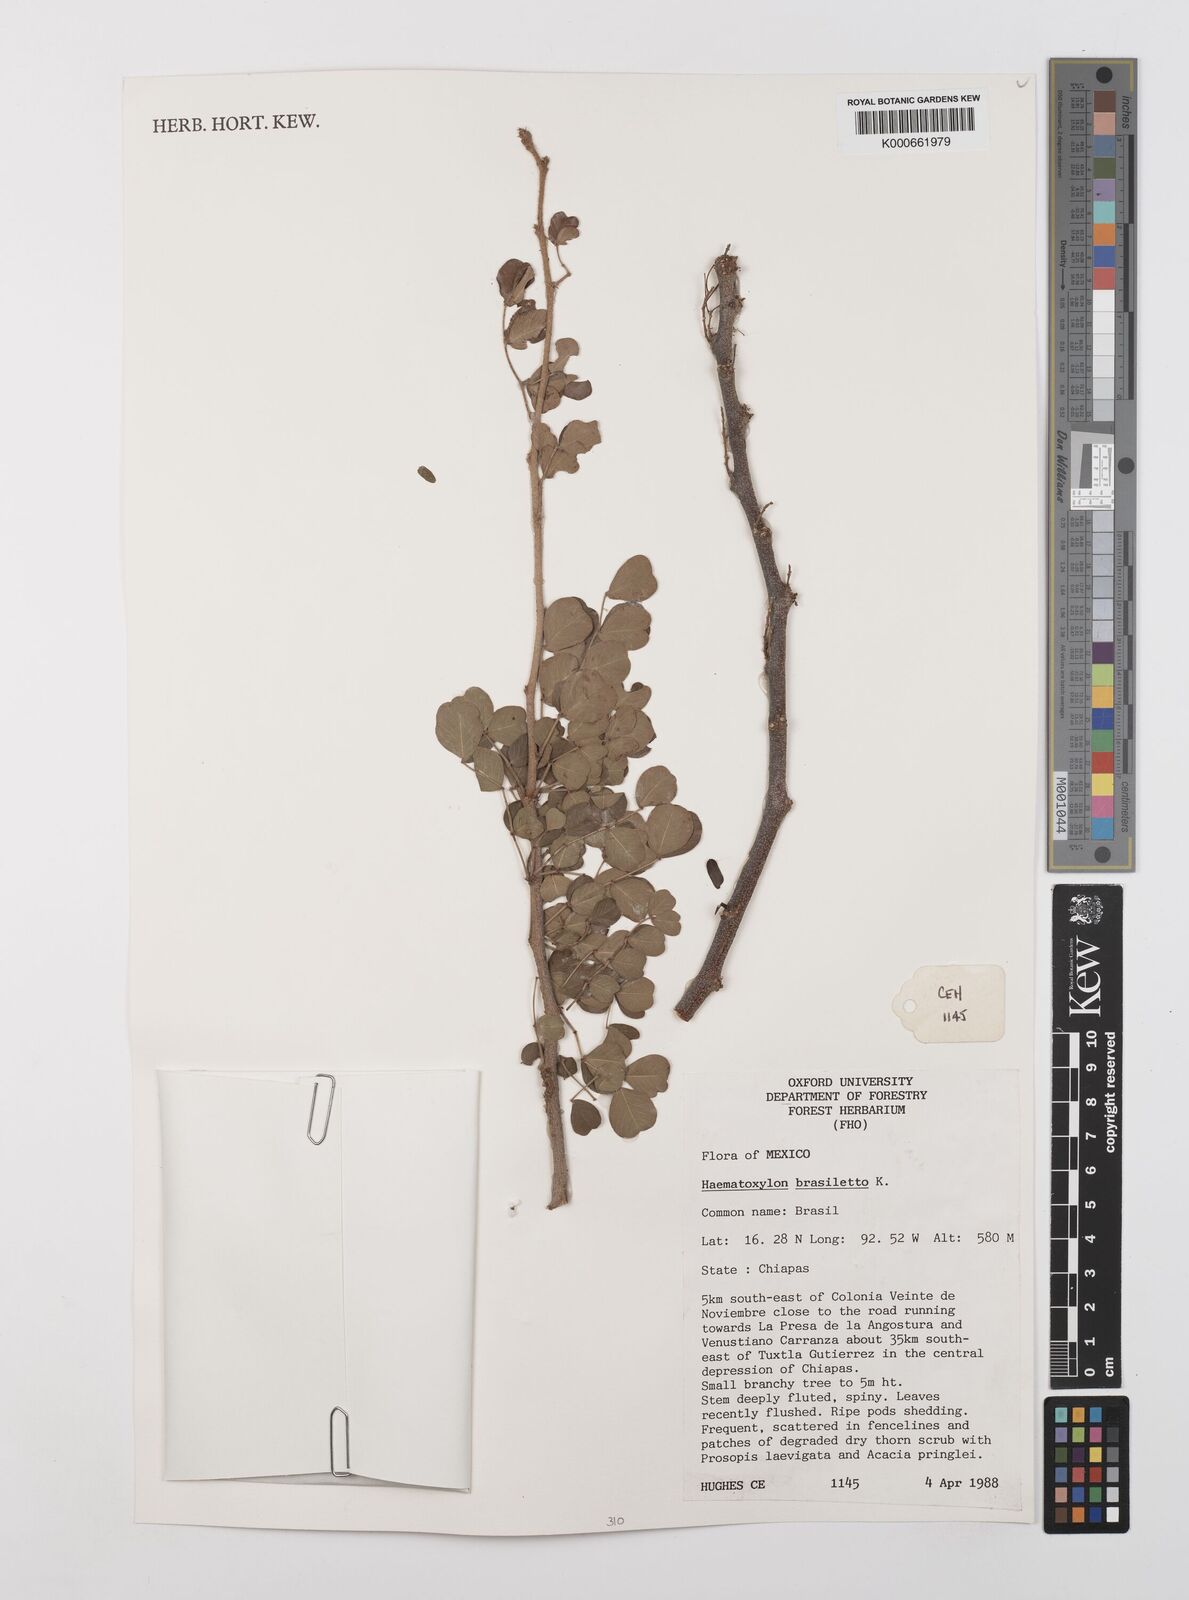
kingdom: Plantae
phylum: Tracheophyta
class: Magnoliopsida
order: Fabales
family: Fabaceae
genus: Haematoxylum
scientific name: Haematoxylum brasiletto
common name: Peachwood
